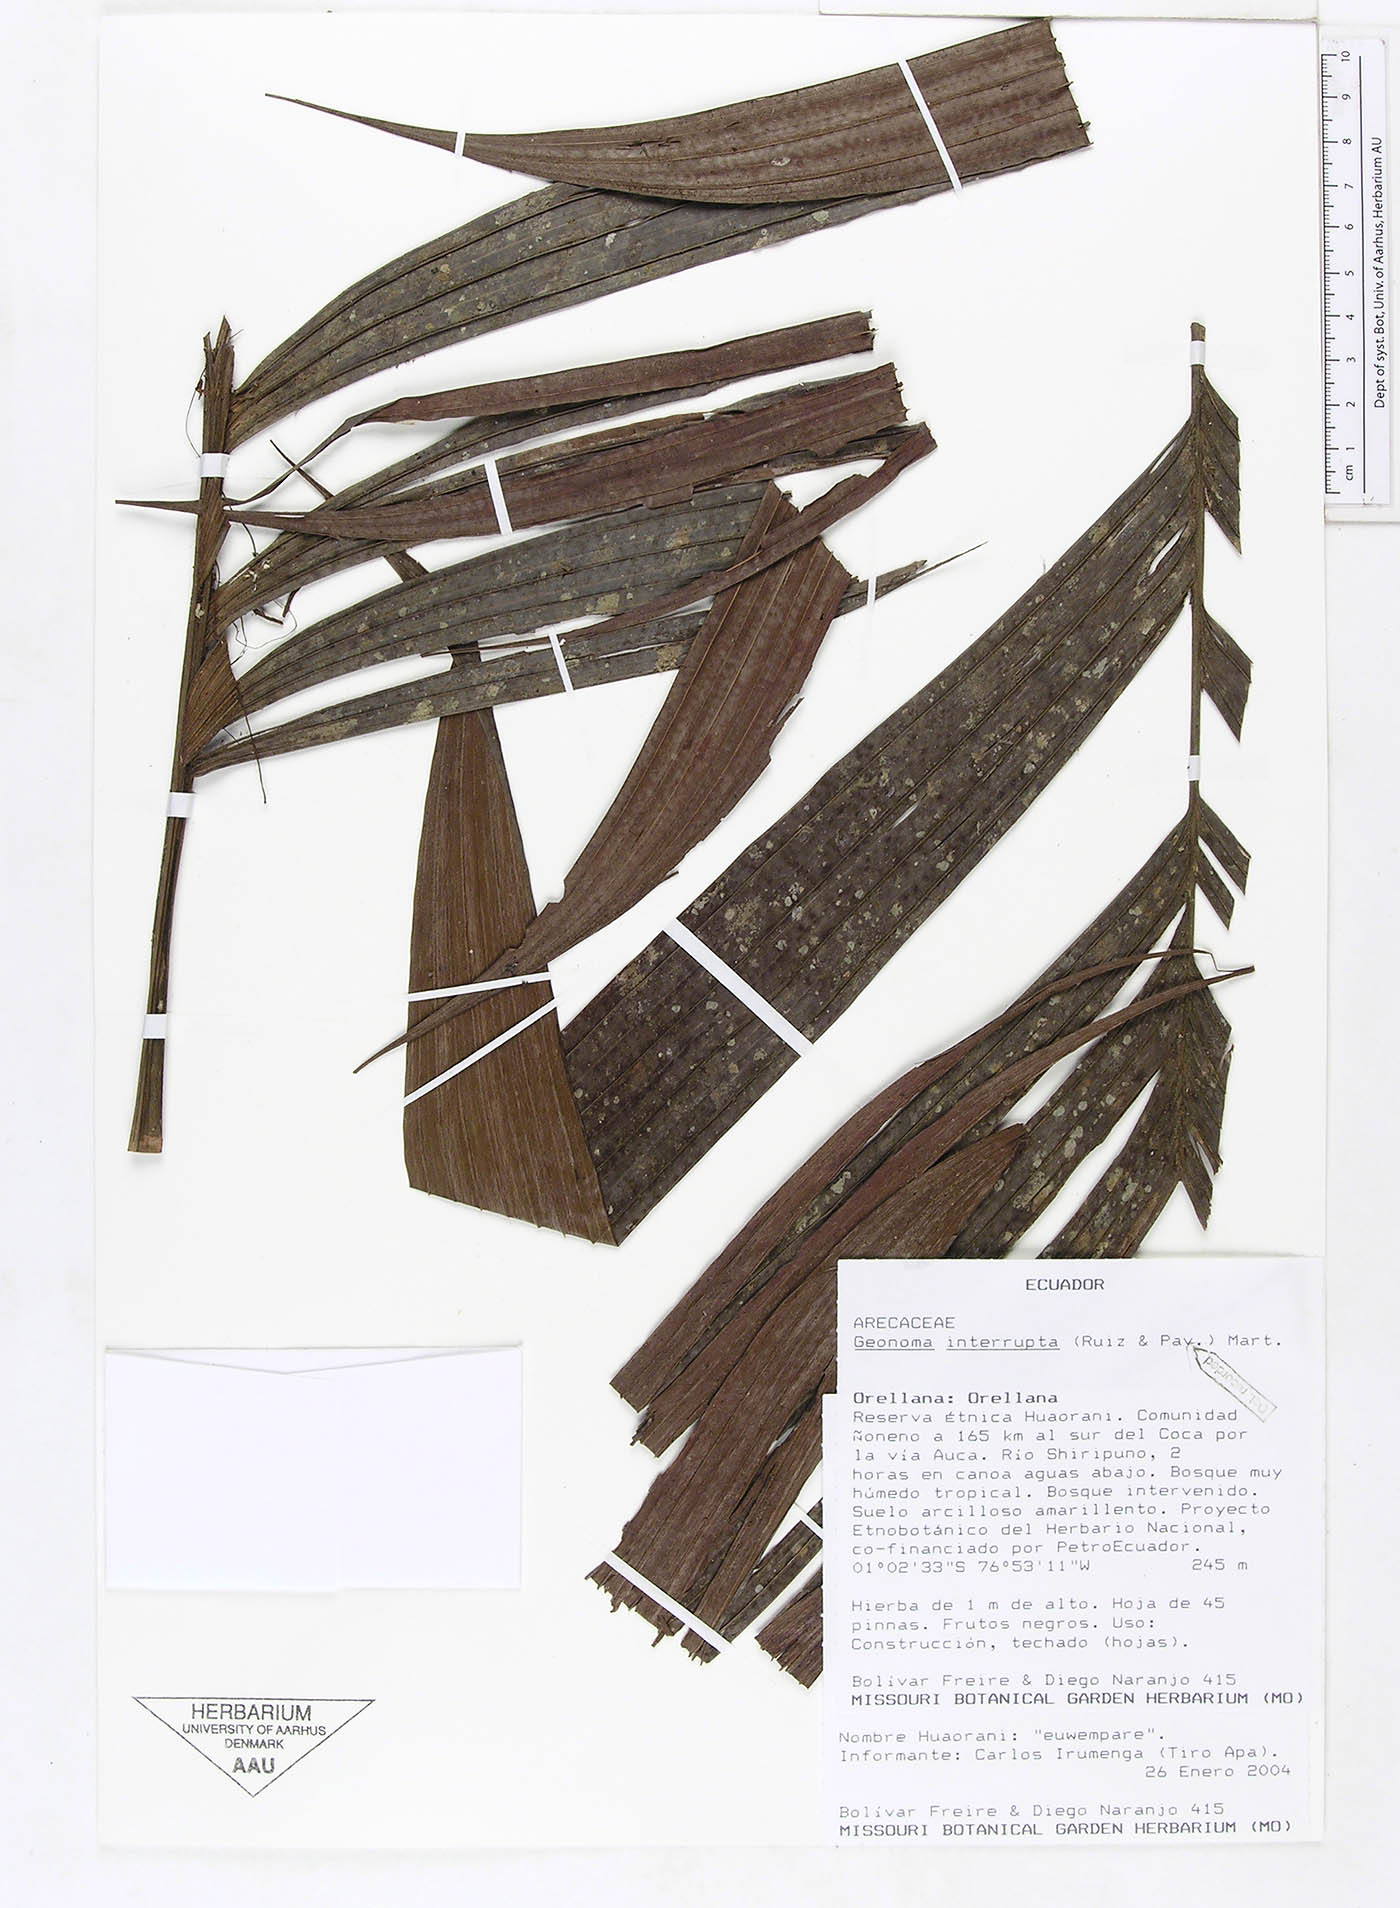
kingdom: Plantae
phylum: Tracheophyta
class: Liliopsida
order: Arecales
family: Arecaceae
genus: Geonoma
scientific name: Geonoma interrupta
